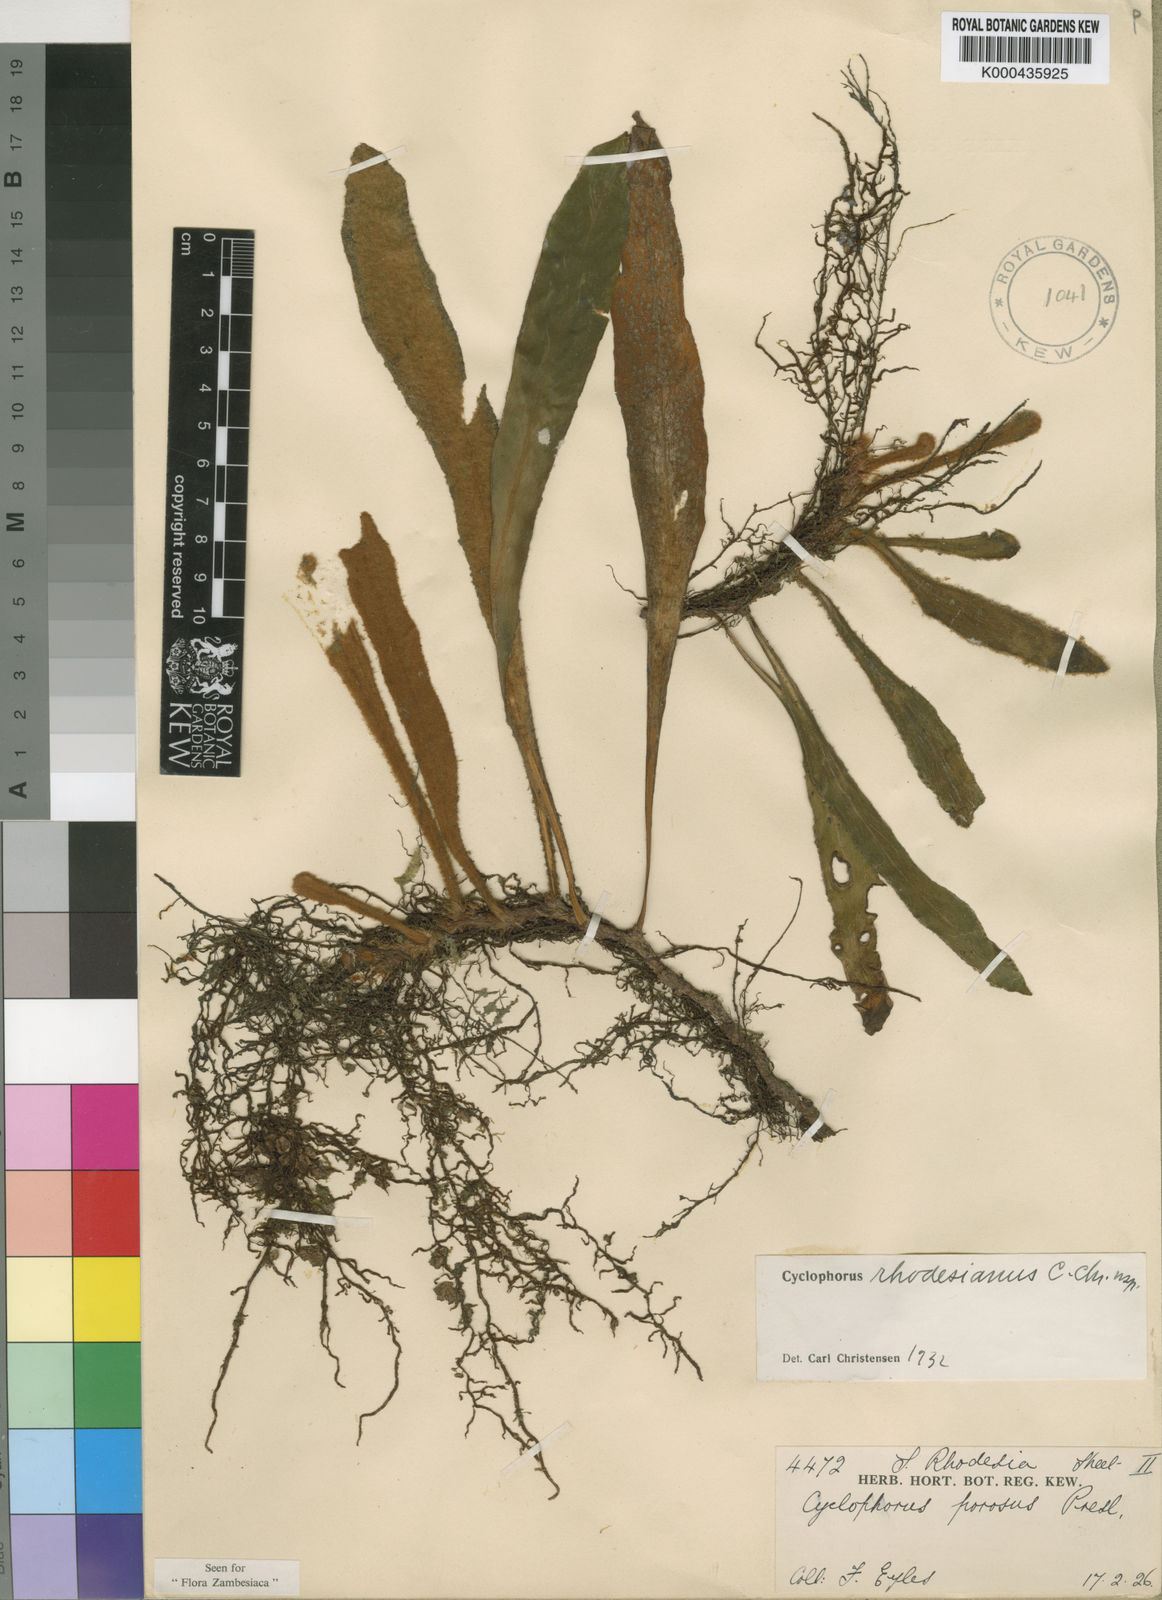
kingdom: Plantae
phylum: Tracheophyta
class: Polypodiopsida
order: Polypodiales
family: Polypodiaceae
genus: Pyrrosia
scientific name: Pyrrosia rhodesiana
